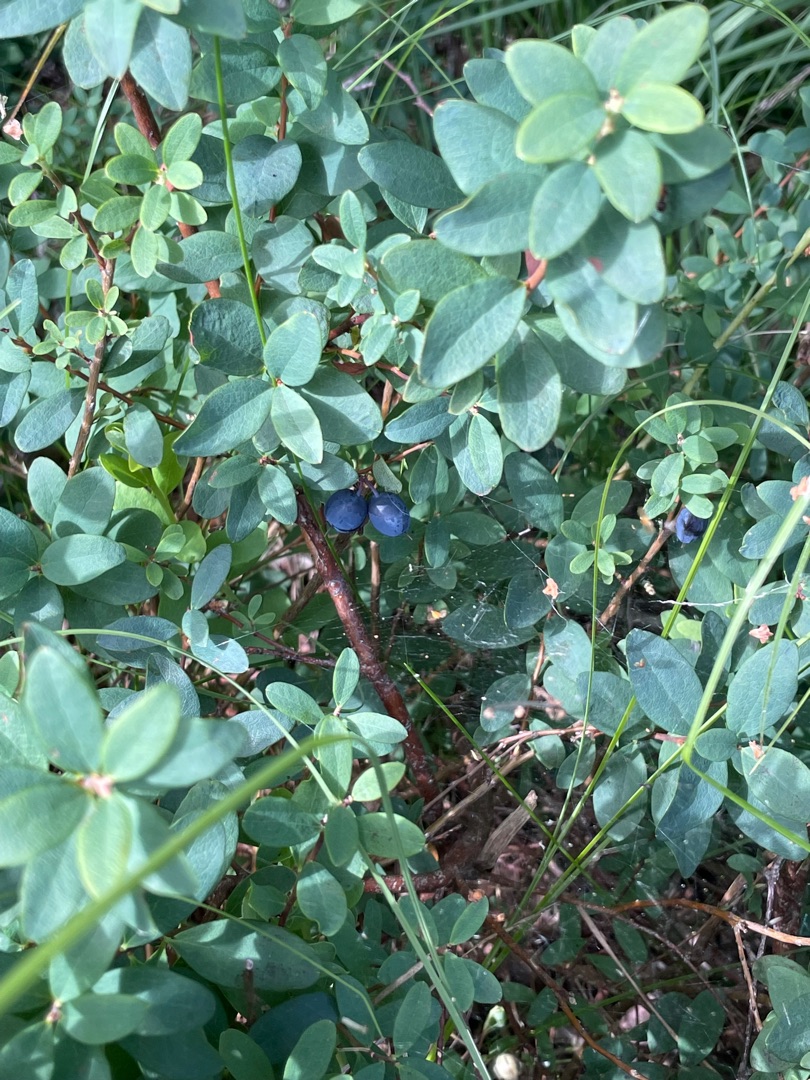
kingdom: Plantae
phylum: Tracheophyta
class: Magnoliopsida
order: Ericales
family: Ericaceae
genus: Vaccinium
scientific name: Vaccinium uliginosum
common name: Mose-bølle
